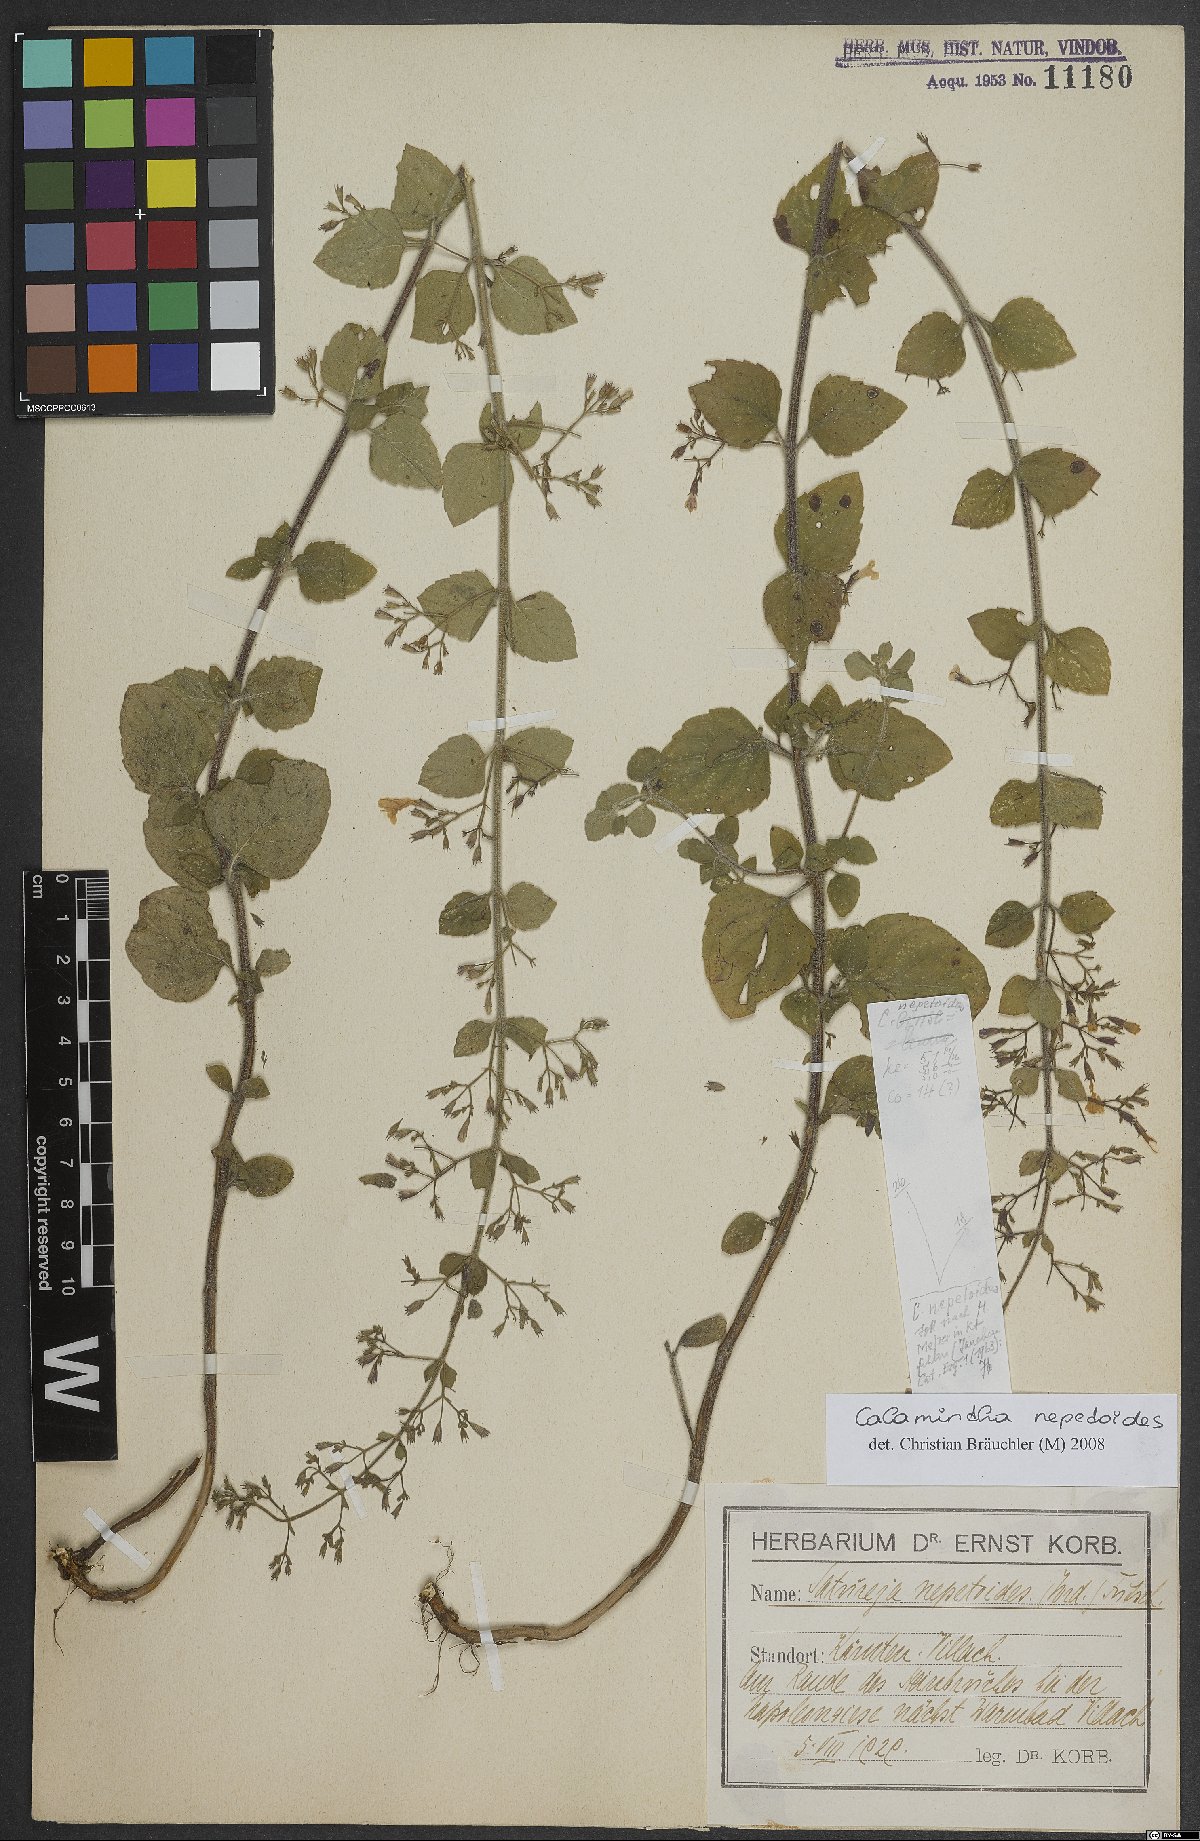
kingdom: Plantae
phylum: Tracheophyta
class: Magnoliopsida
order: Lamiales
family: Lamiaceae
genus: Clinopodium
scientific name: Clinopodium nepeta
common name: Lesser calamint
